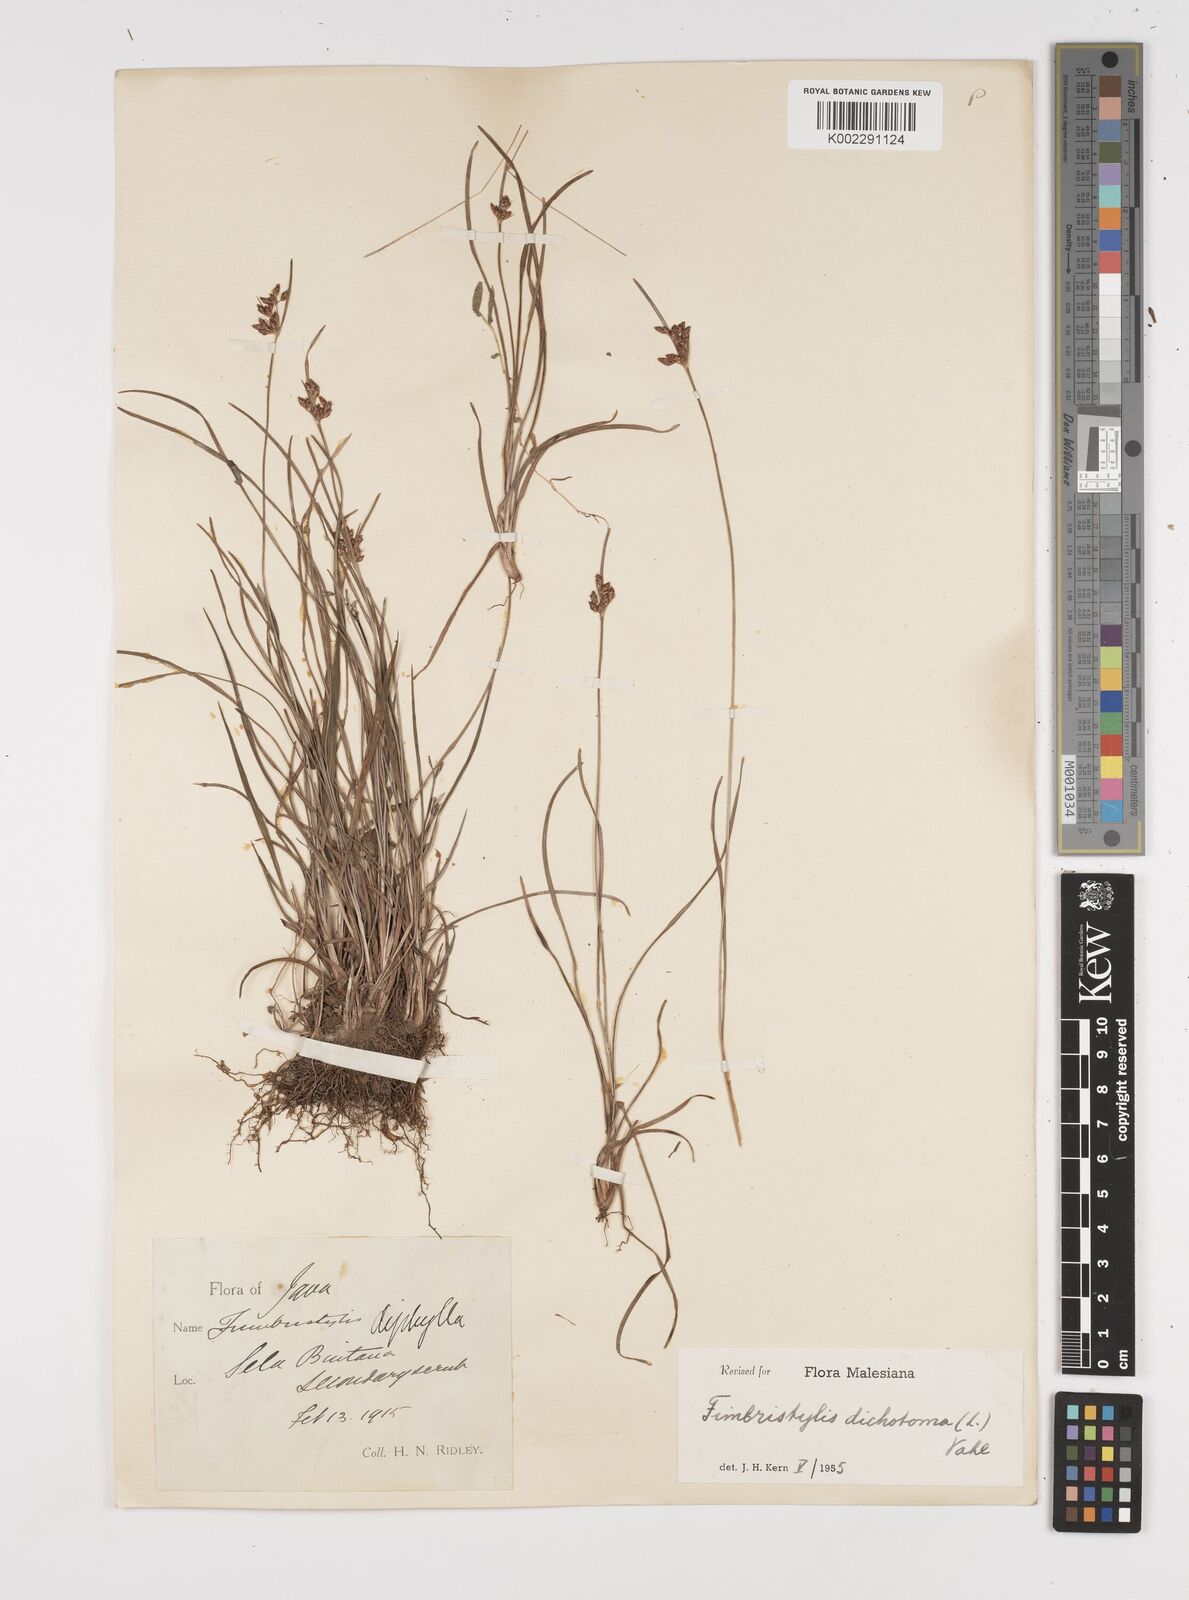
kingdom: Plantae
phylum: Tracheophyta
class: Liliopsida
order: Poales
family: Cyperaceae
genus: Fimbristylis
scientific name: Fimbristylis dichotoma
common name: Forked fimbry
